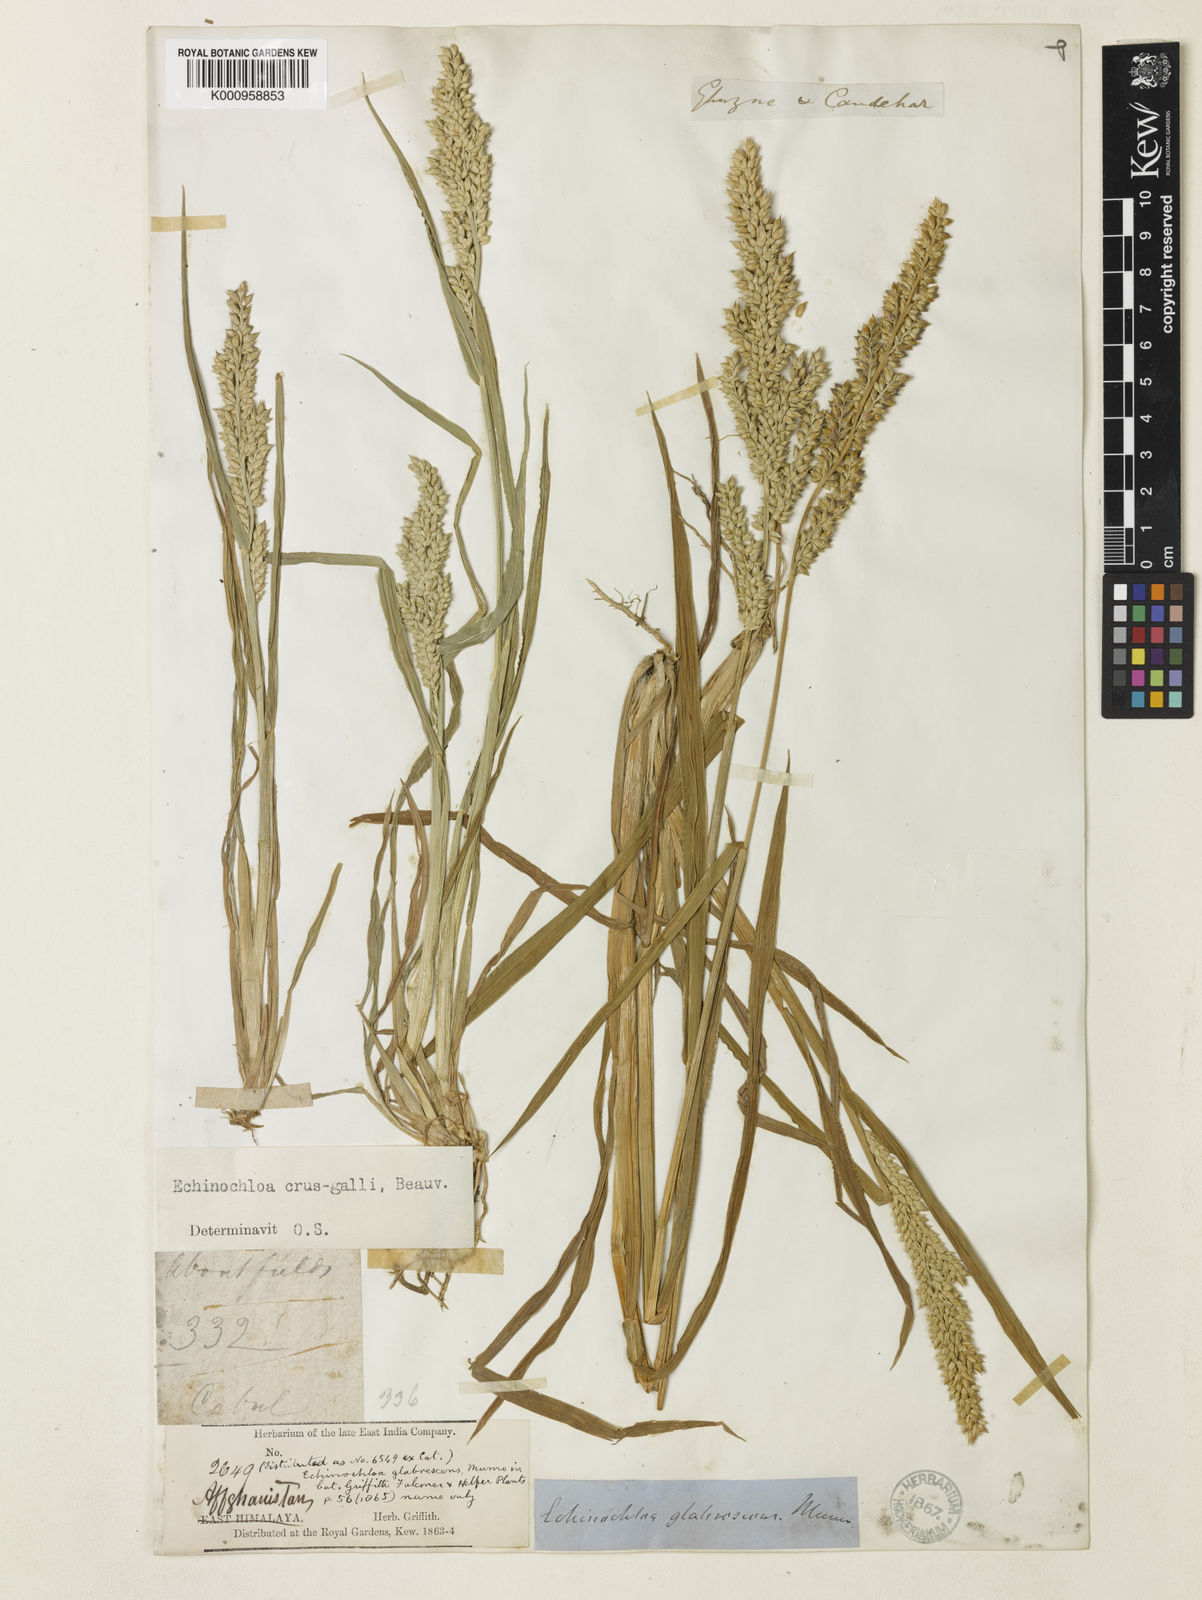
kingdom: Plantae
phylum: Tracheophyta
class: Liliopsida
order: Poales
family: Poaceae
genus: Echinochloa
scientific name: Echinochloa crus-galli
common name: Cockspur
